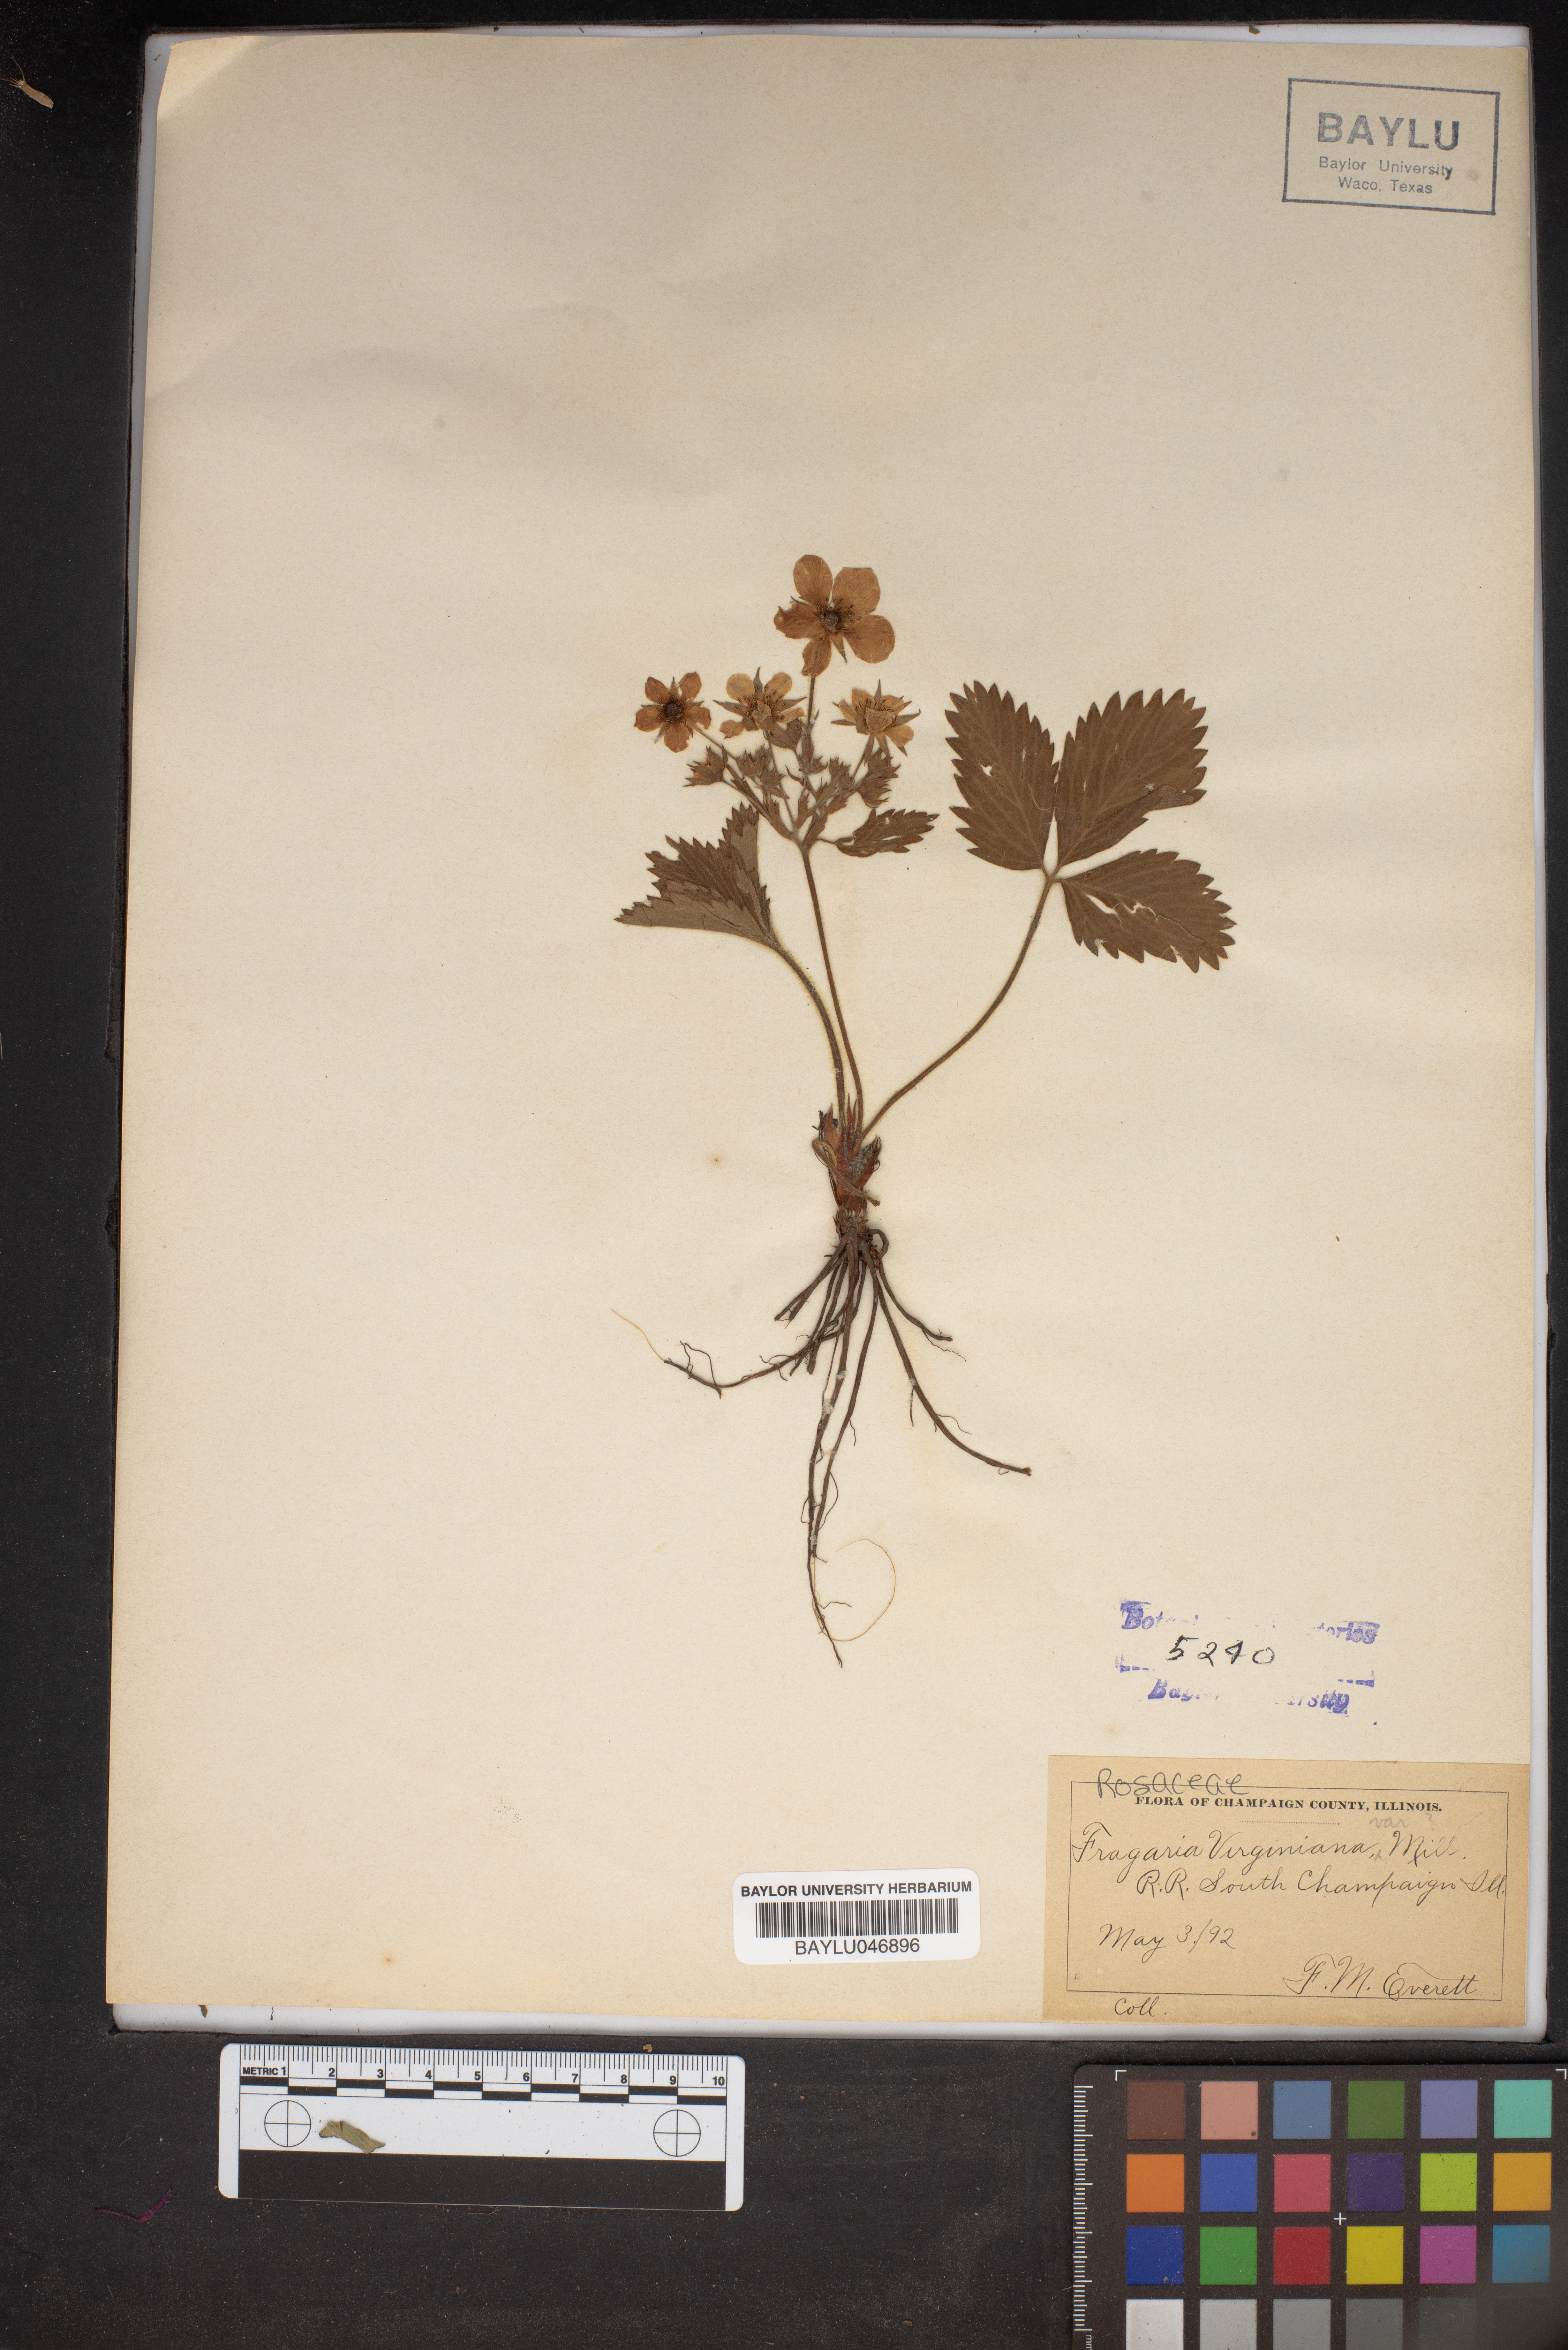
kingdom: Plantae
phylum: Tracheophyta
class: Magnoliopsida
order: Rosales
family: Rosaceae
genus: Fragaria
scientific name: Fragaria virginiana
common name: Thickleaved wild strawberry
